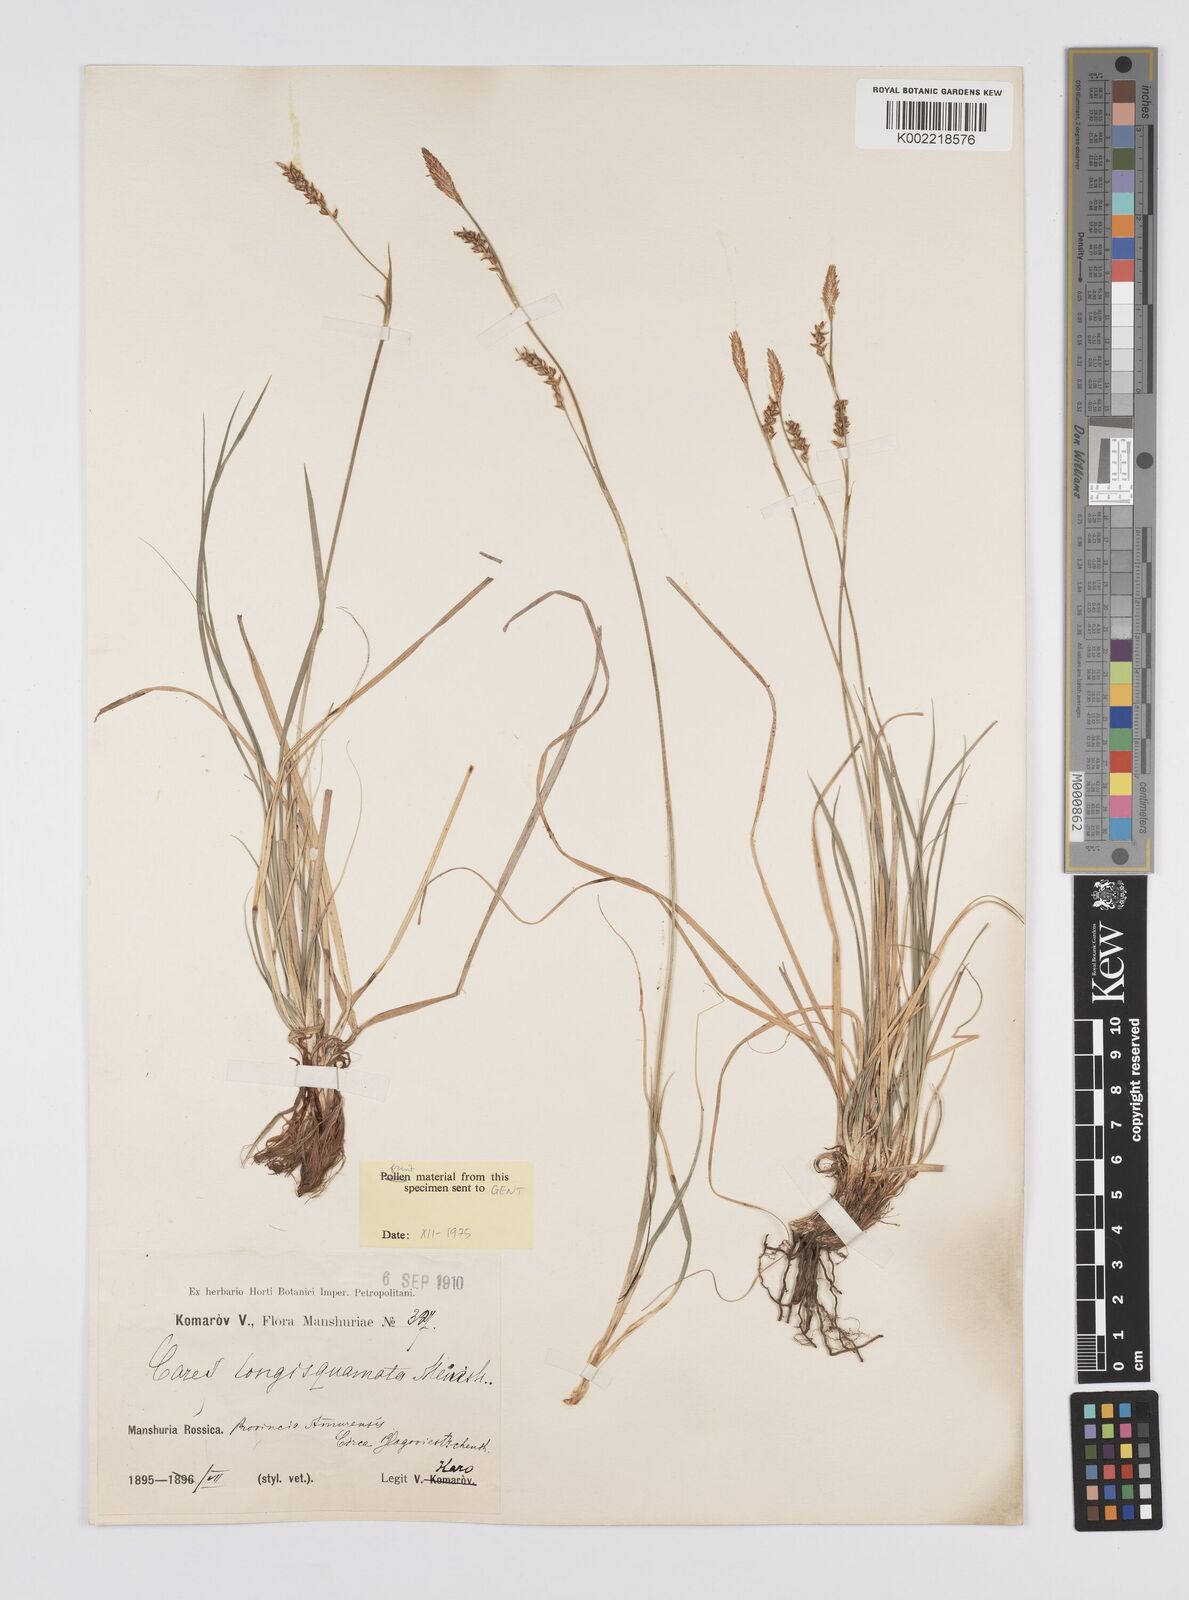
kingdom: Plantae
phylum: Tracheophyta
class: Liliopsida
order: Poales
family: Cyperaceae
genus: Carex
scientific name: Carex pediformis
